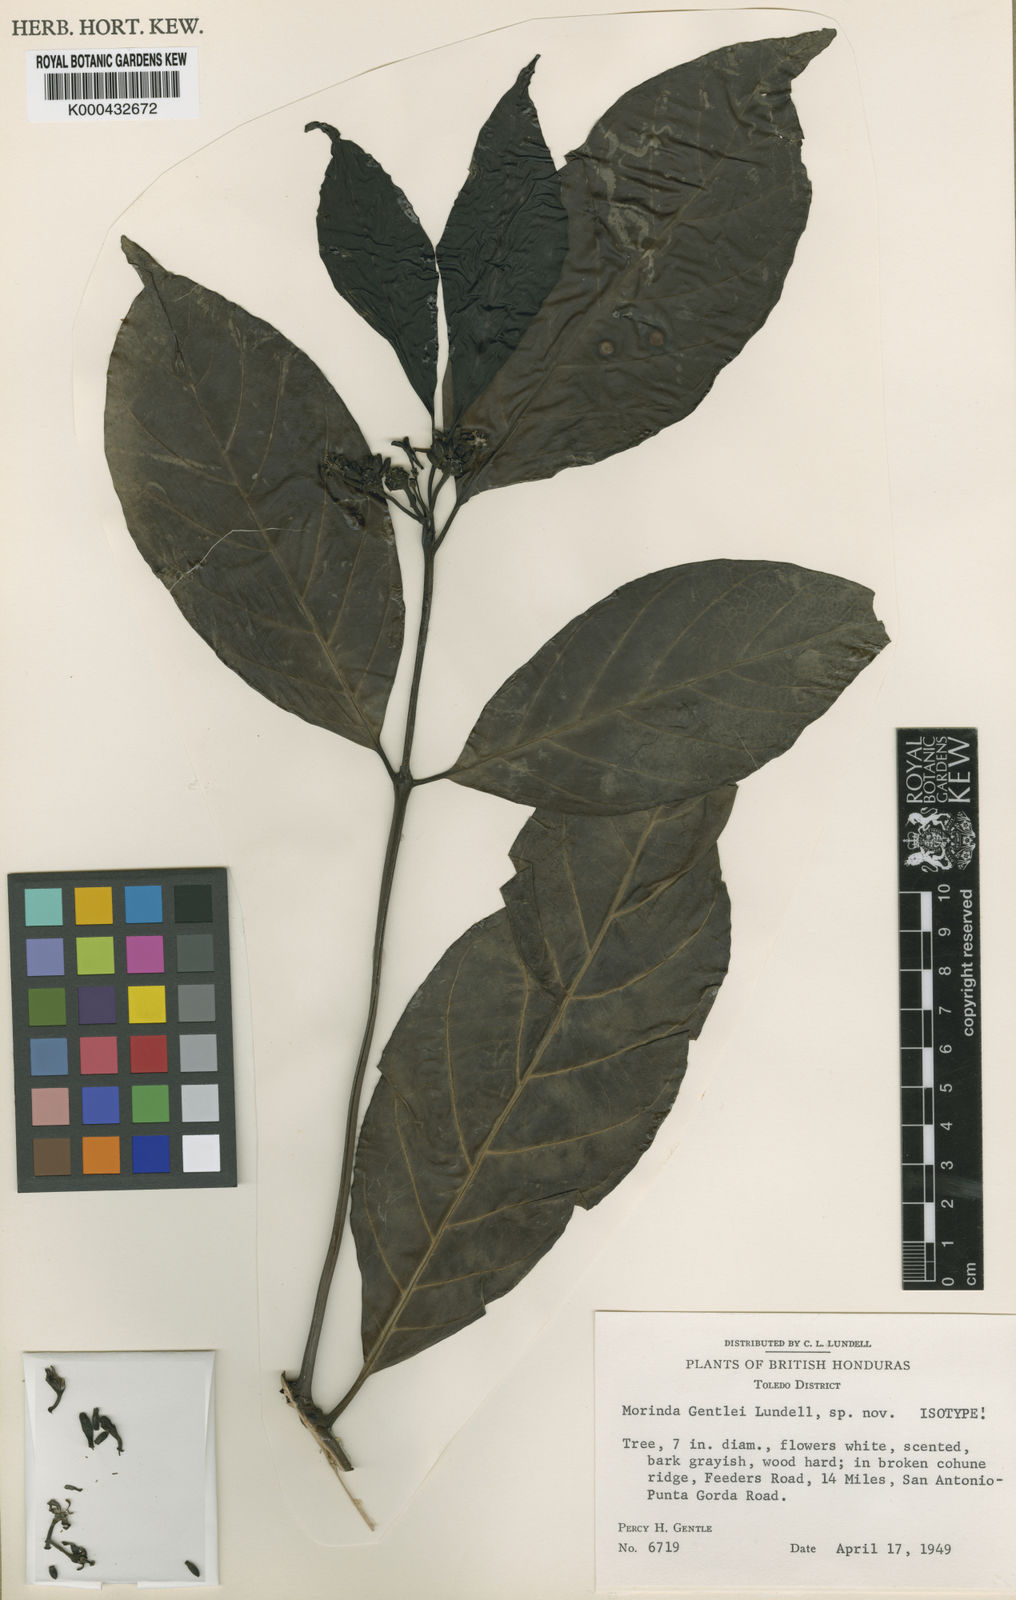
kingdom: Plantae
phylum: Tracheophyta
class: Magnoliopsida
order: Gentianales
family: Rubiaceae
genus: Morinda
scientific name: Morinda
